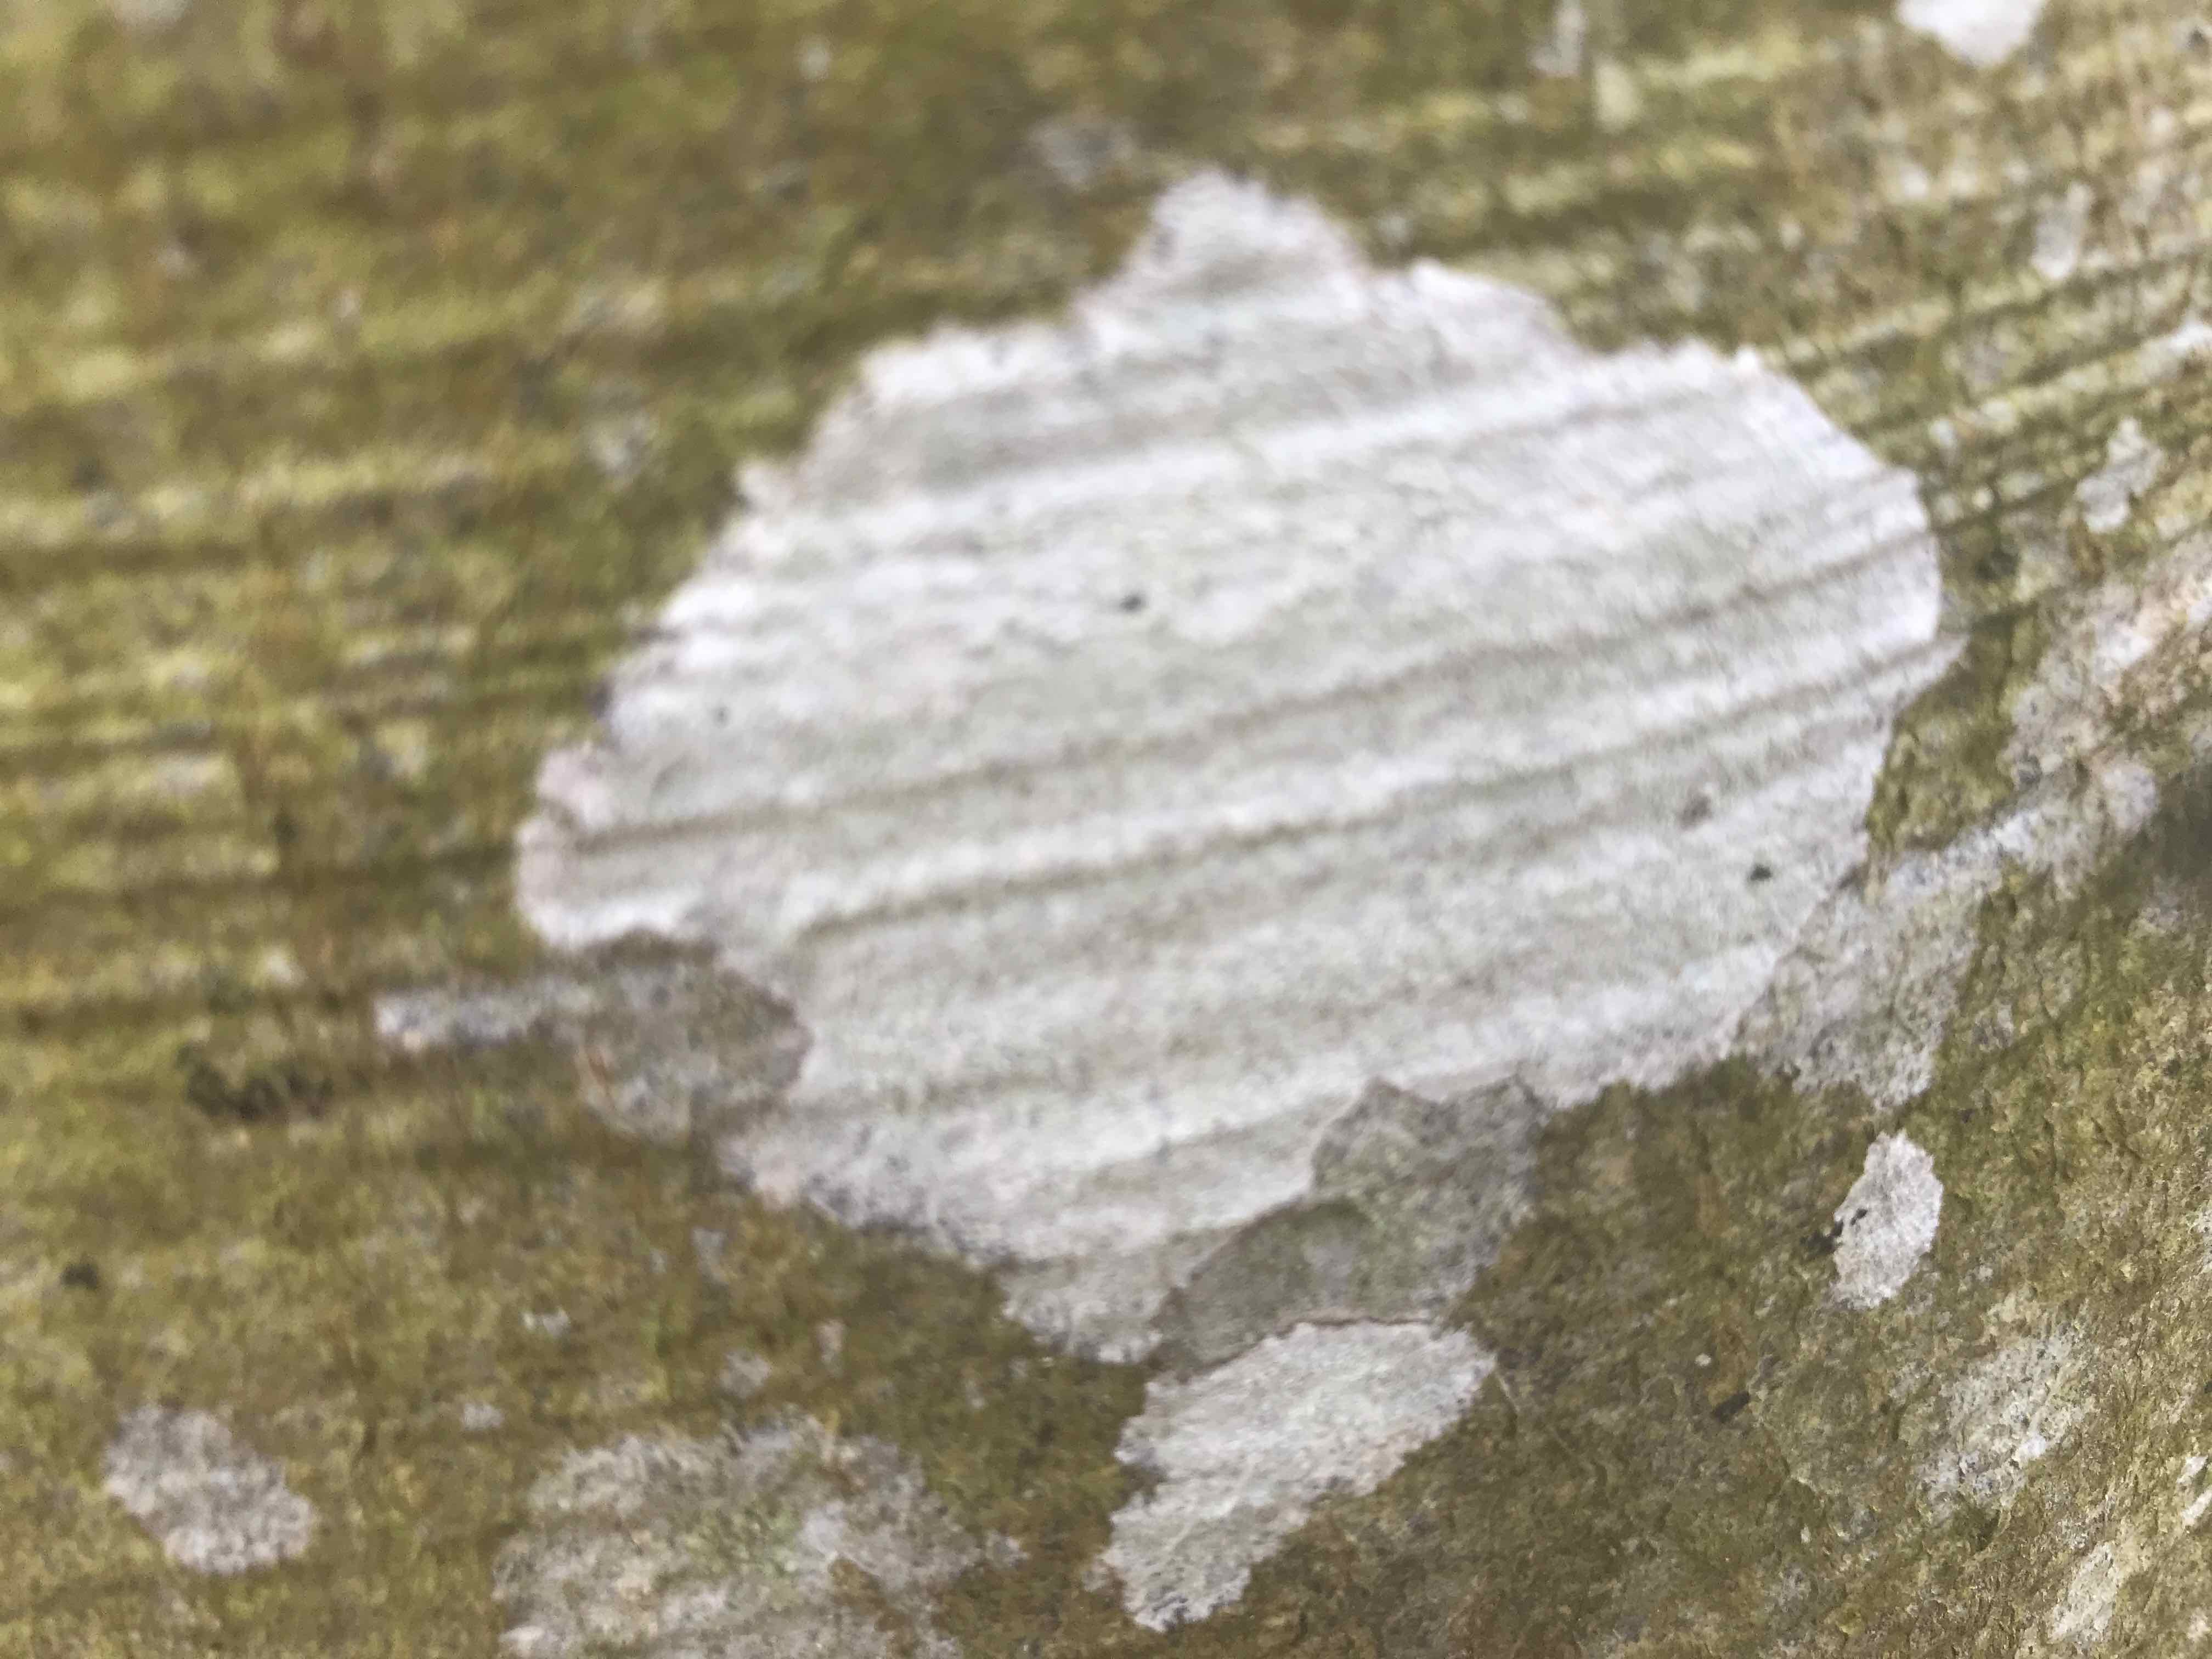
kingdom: Fungi
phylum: Ascomycota
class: Lecanoromycetes
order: Ostropales
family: Phlyctidaceae
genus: Phlyctis
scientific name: Phlyctis argena
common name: almindelig sølvlav
